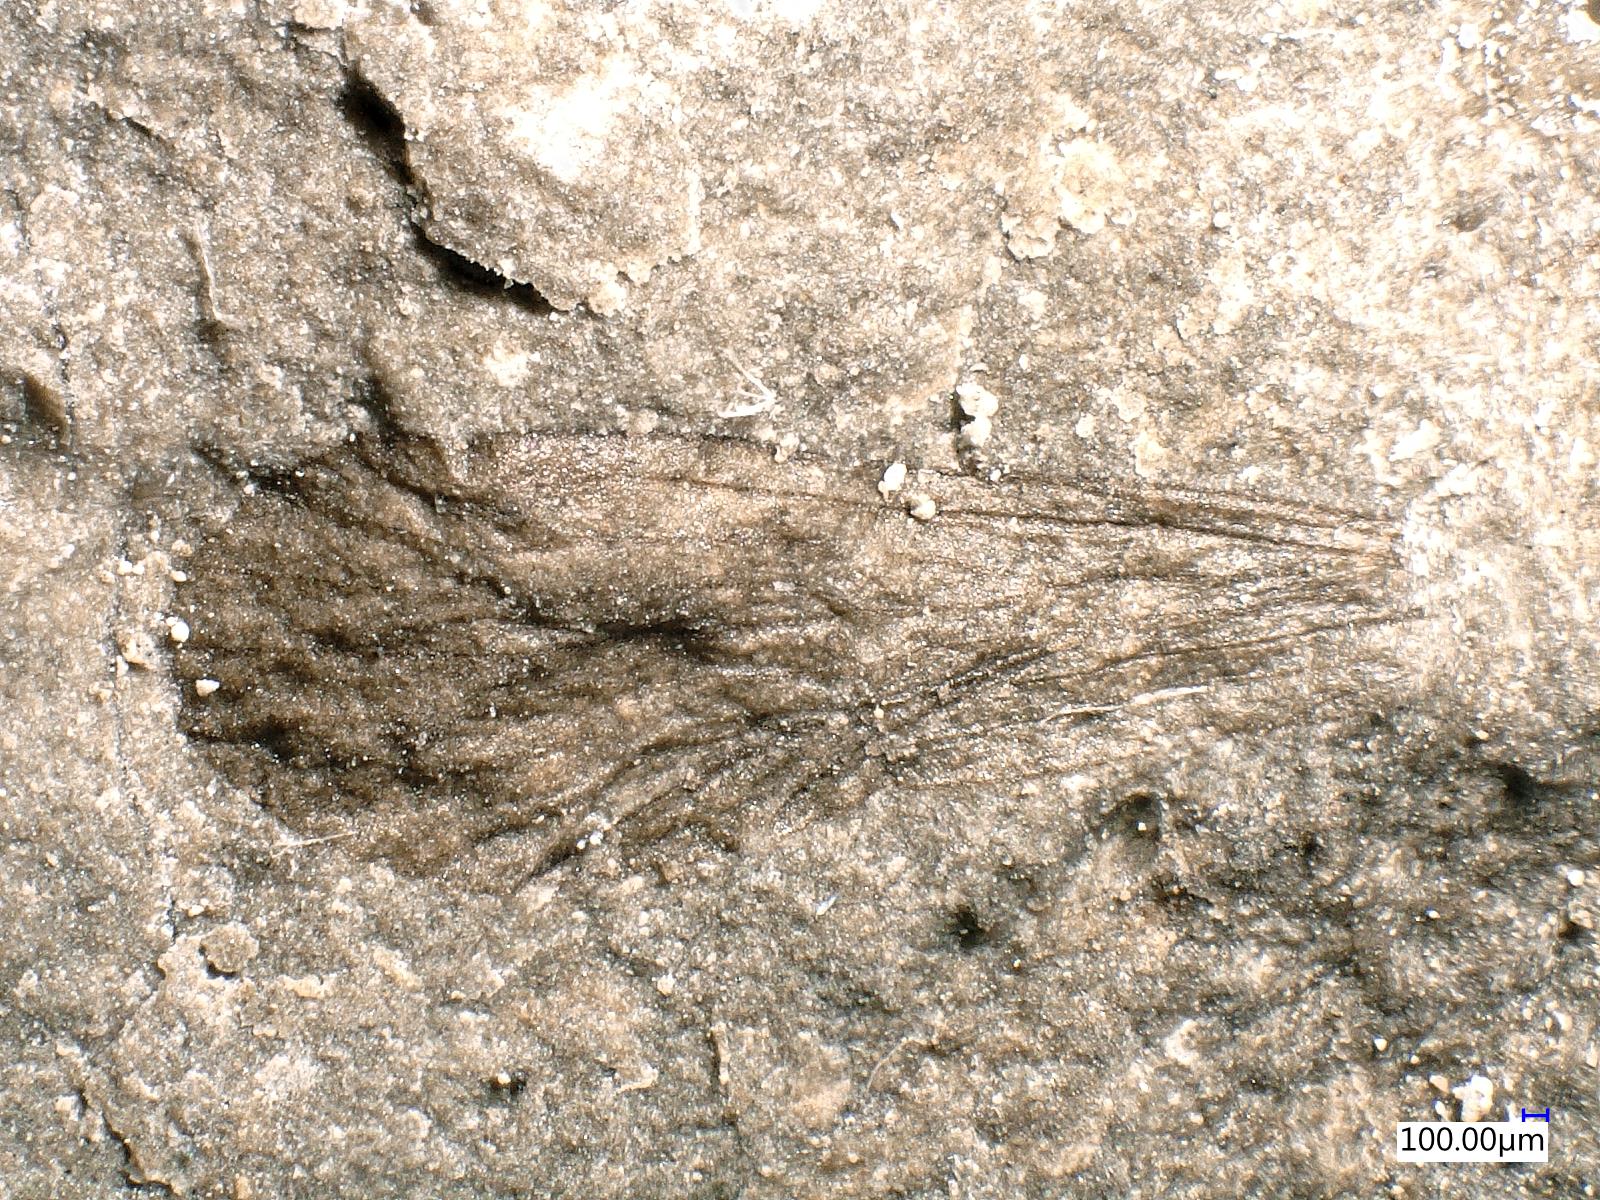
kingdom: Animalia
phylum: Arthropoda
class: Insecta
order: Diptera
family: Limoniidae
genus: Hexatoma
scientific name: Hexatoma
